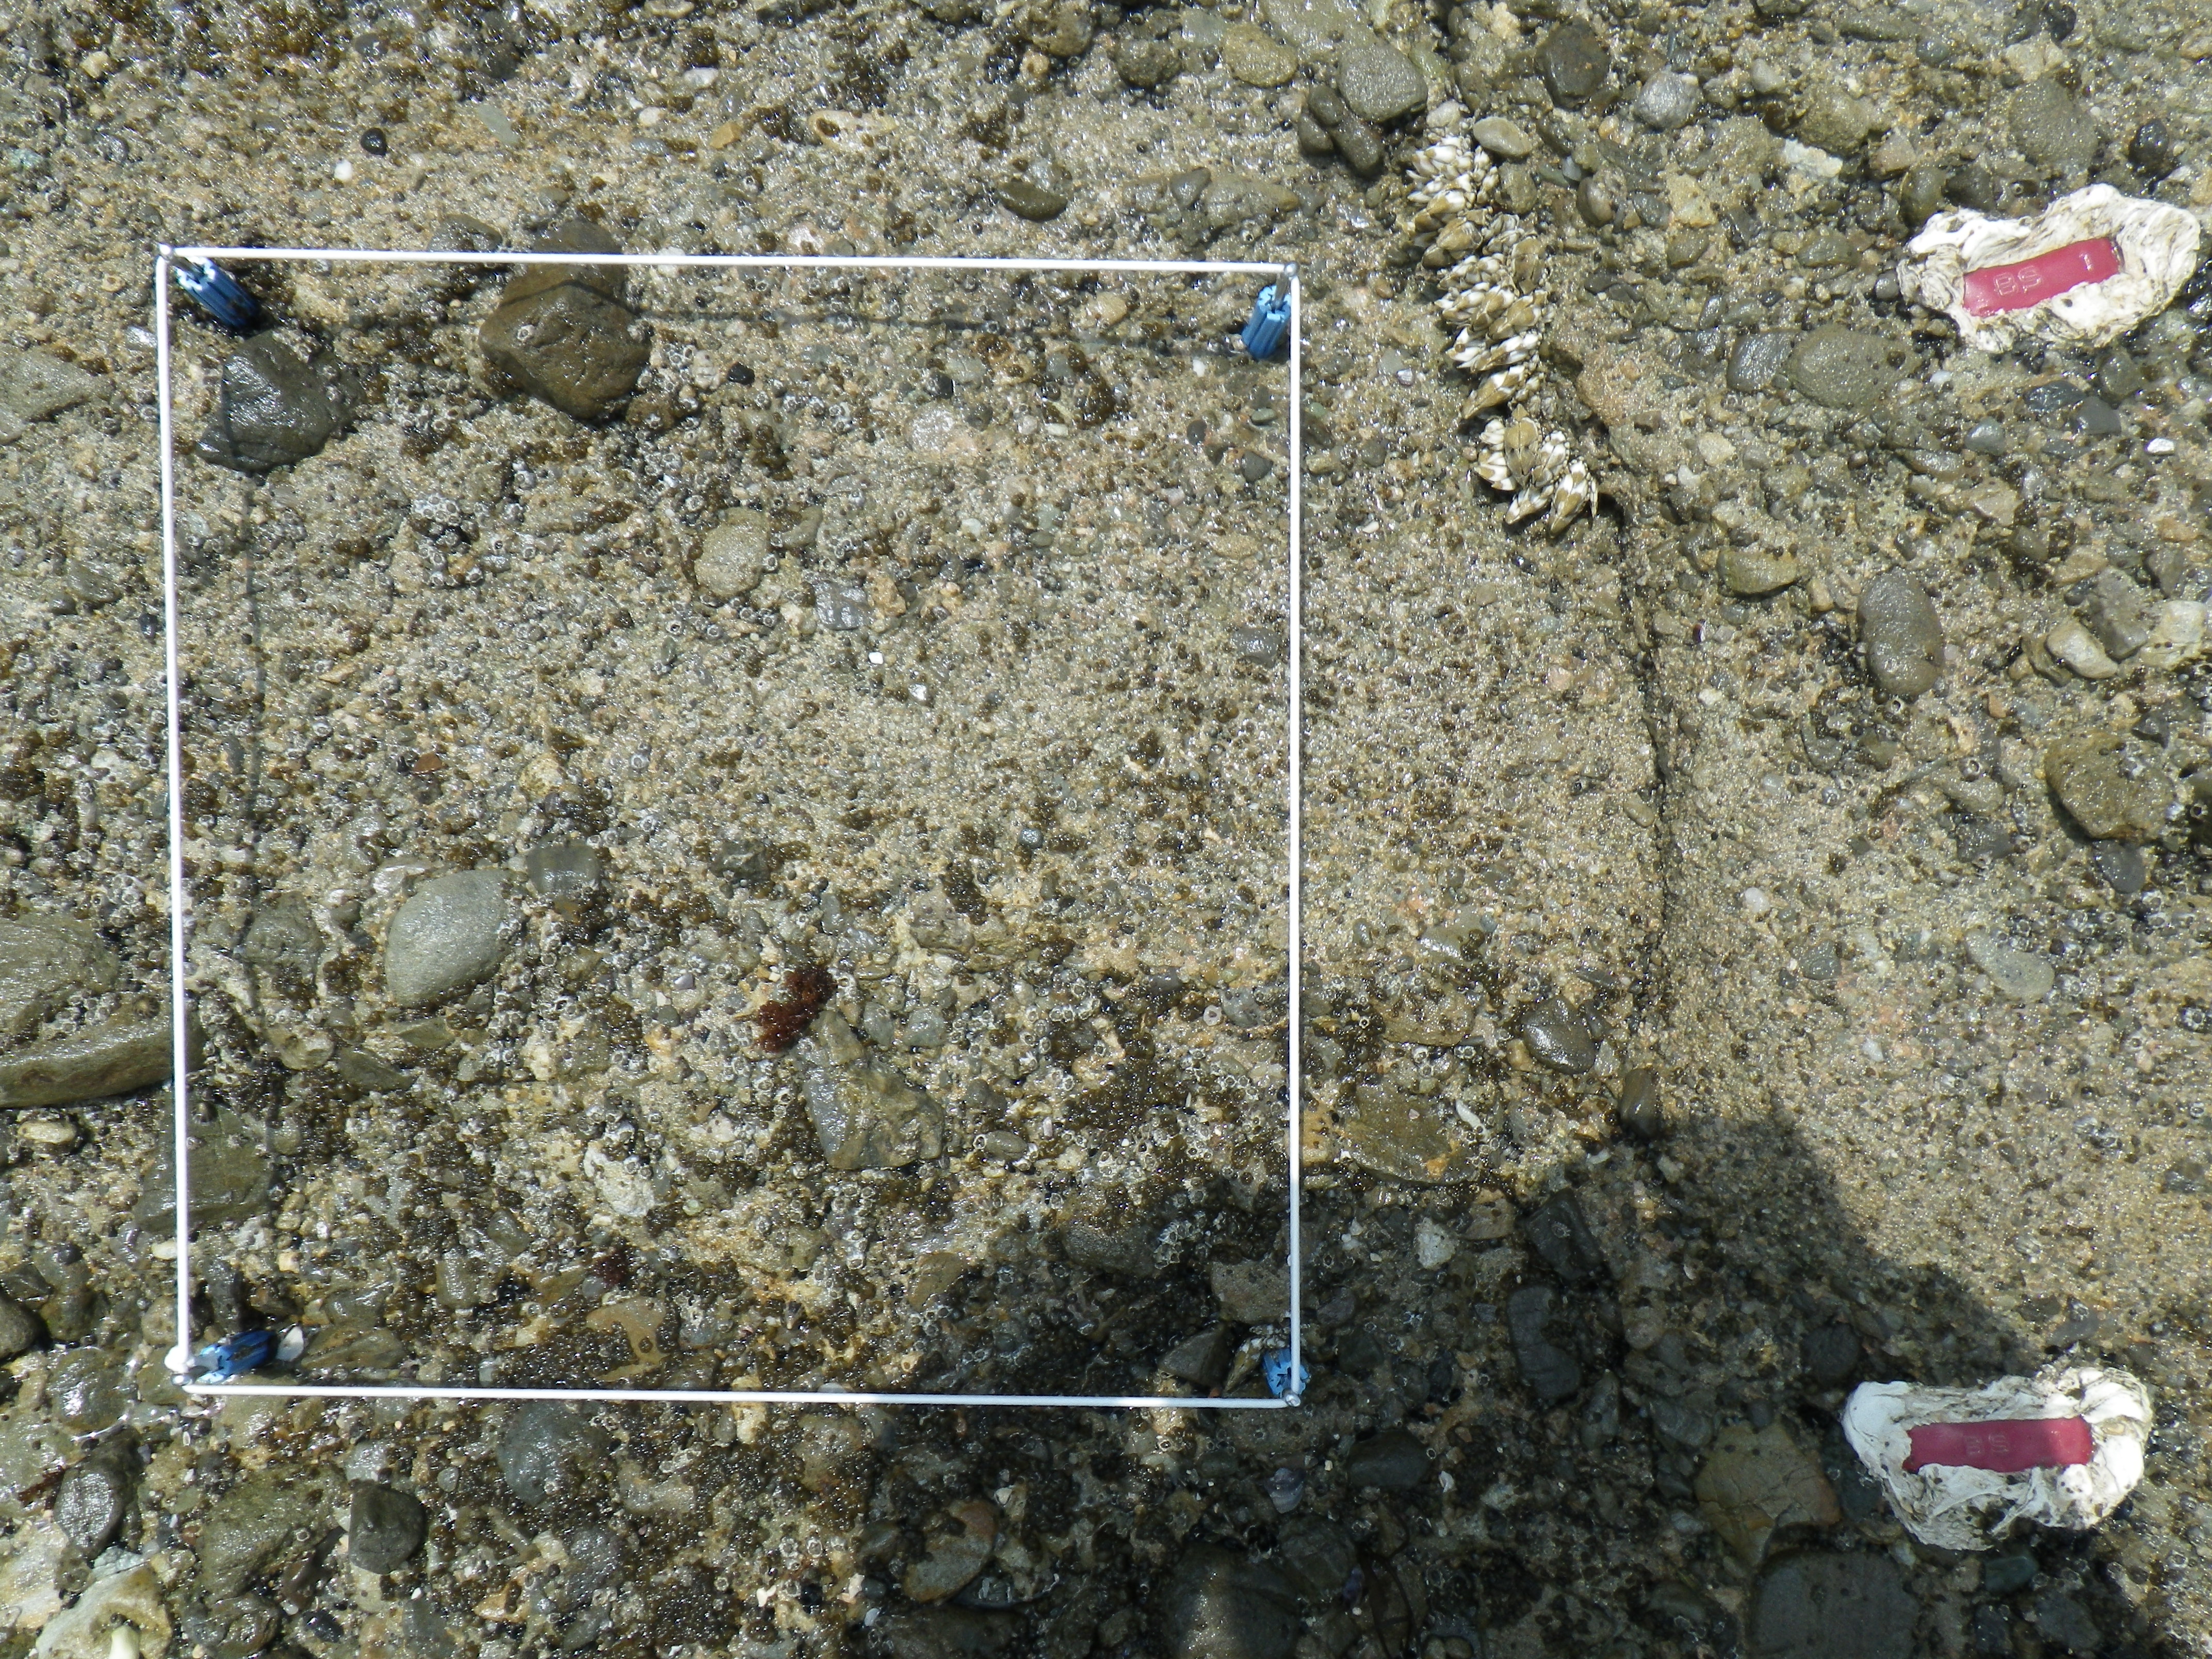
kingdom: Animalia
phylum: Arthropoda
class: Maxillopoda
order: Sessilia
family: Chthamalidae
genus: Chthamalus
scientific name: Chthamalus challengeri
